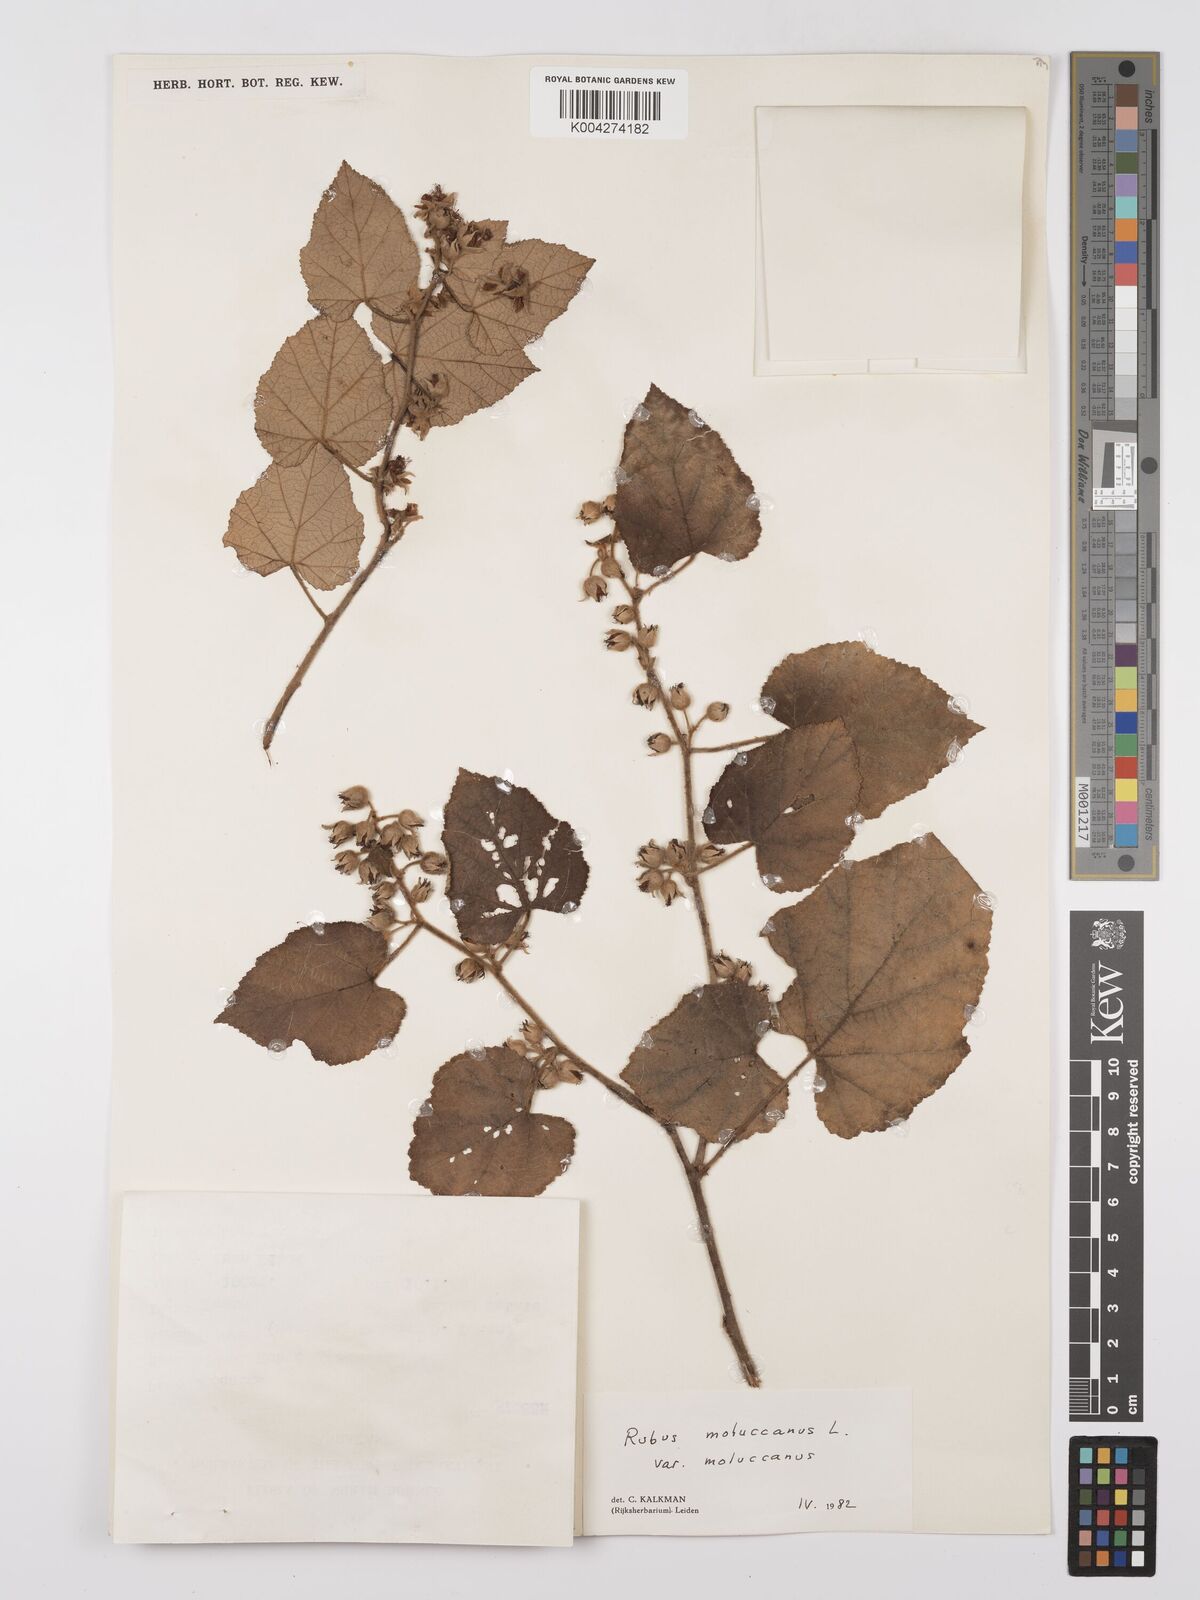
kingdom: Plantae
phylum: Tracheophyta
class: Magnoliopsida
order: Rosales
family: Rosaceae
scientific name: Rosaceae
